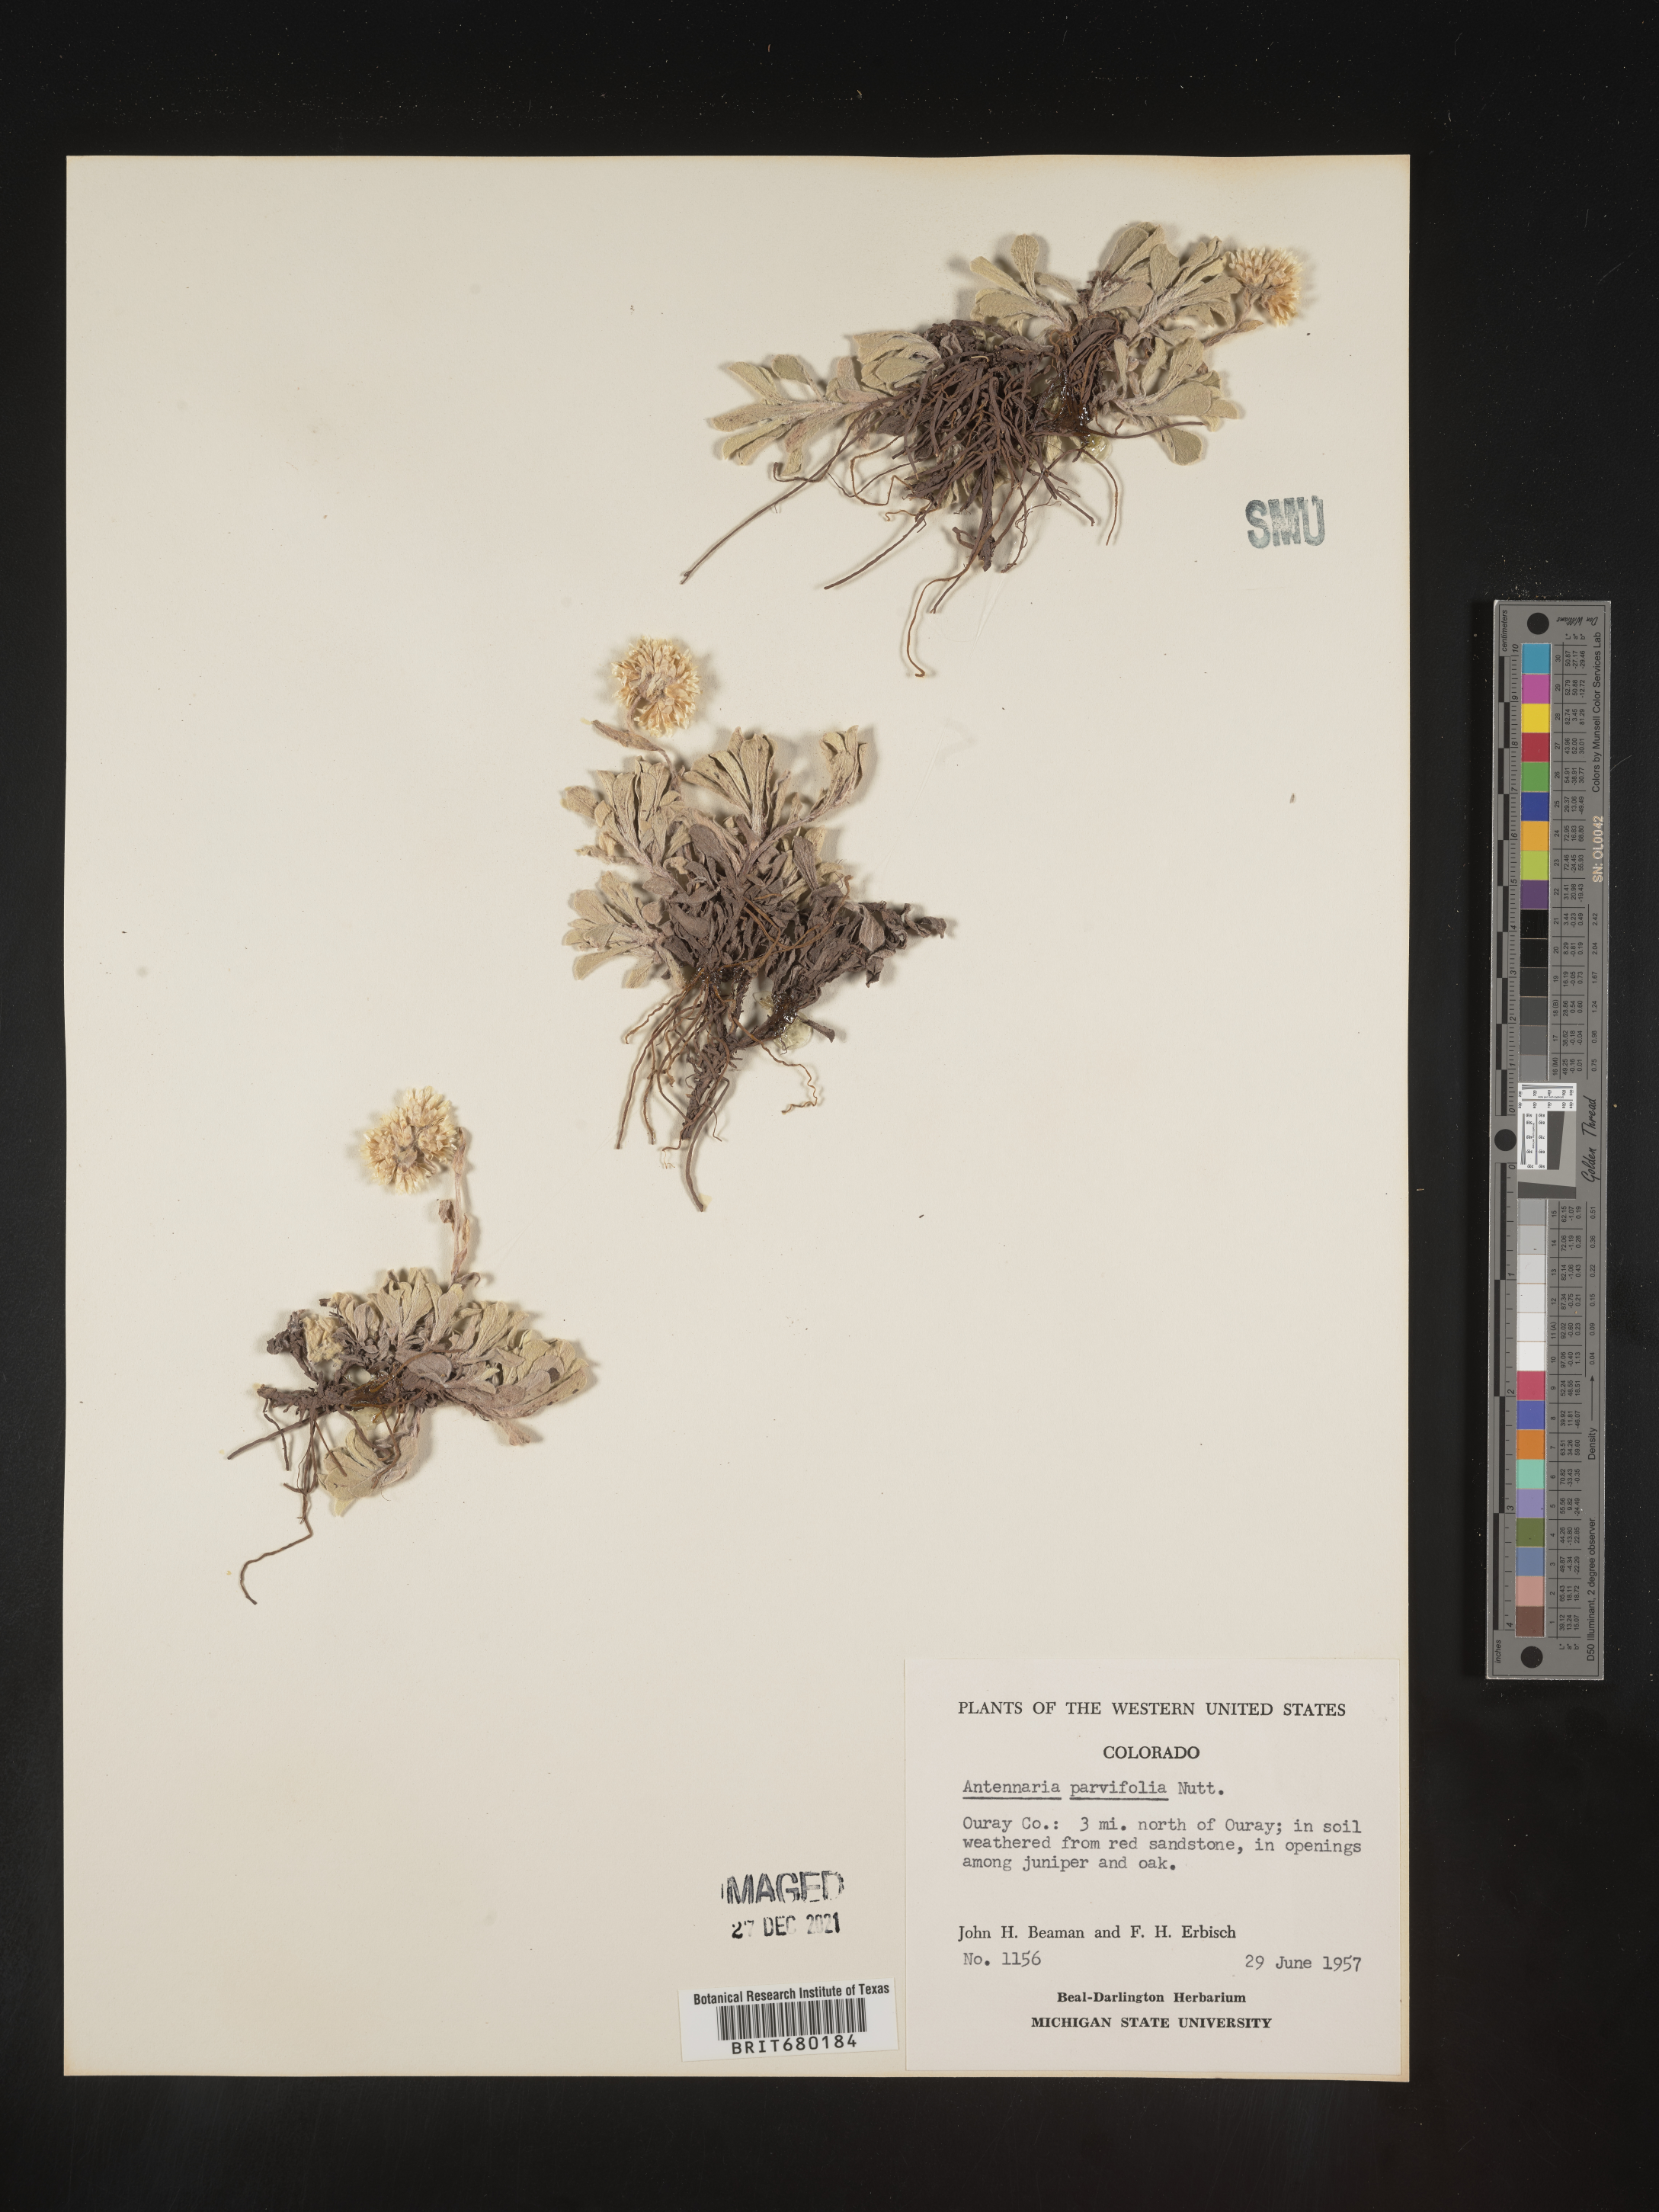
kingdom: Plantae
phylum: Tracheophyta
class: Magnoliopsida
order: Asterales
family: Asteraceae
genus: Antennaria
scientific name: Antennaria plantaginifolia
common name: Plantain-leaved pussytoes
